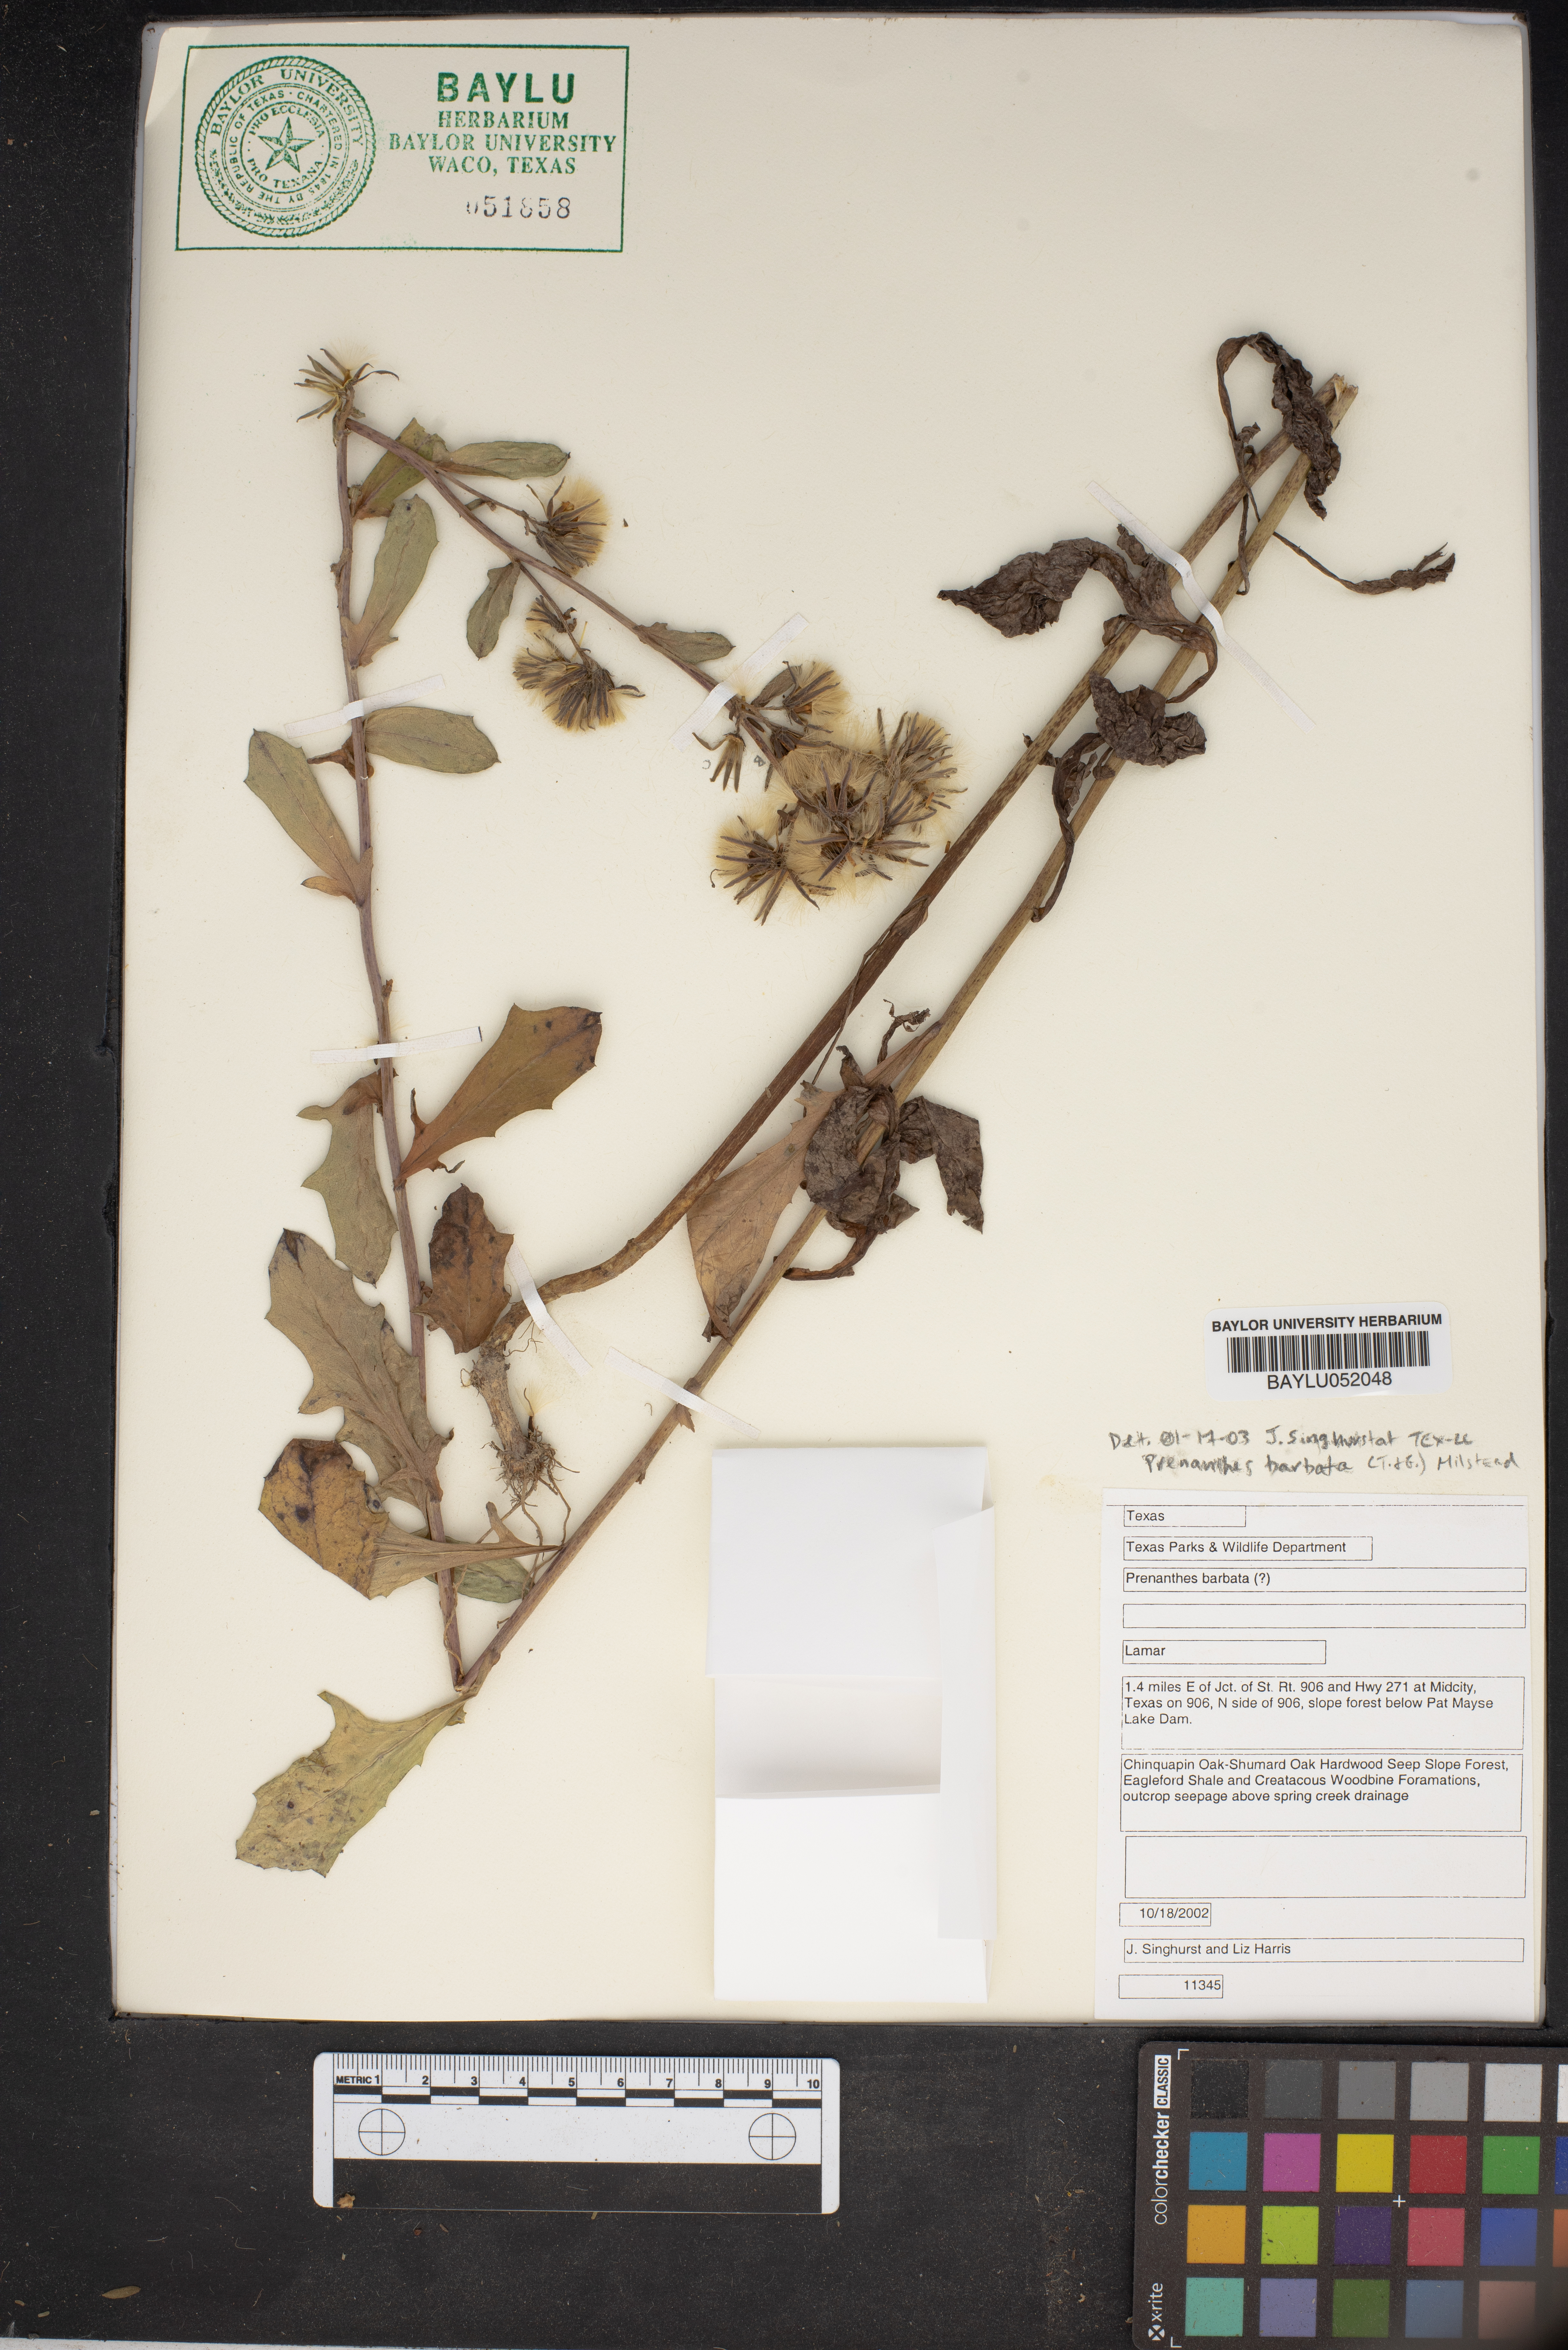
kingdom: Plantae
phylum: Tracheophyta
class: Magnoliopsida
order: Asterales
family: Asteraceae
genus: Nabalus
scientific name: Nabalus barbata
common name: Barbed rattlesnakeroot
